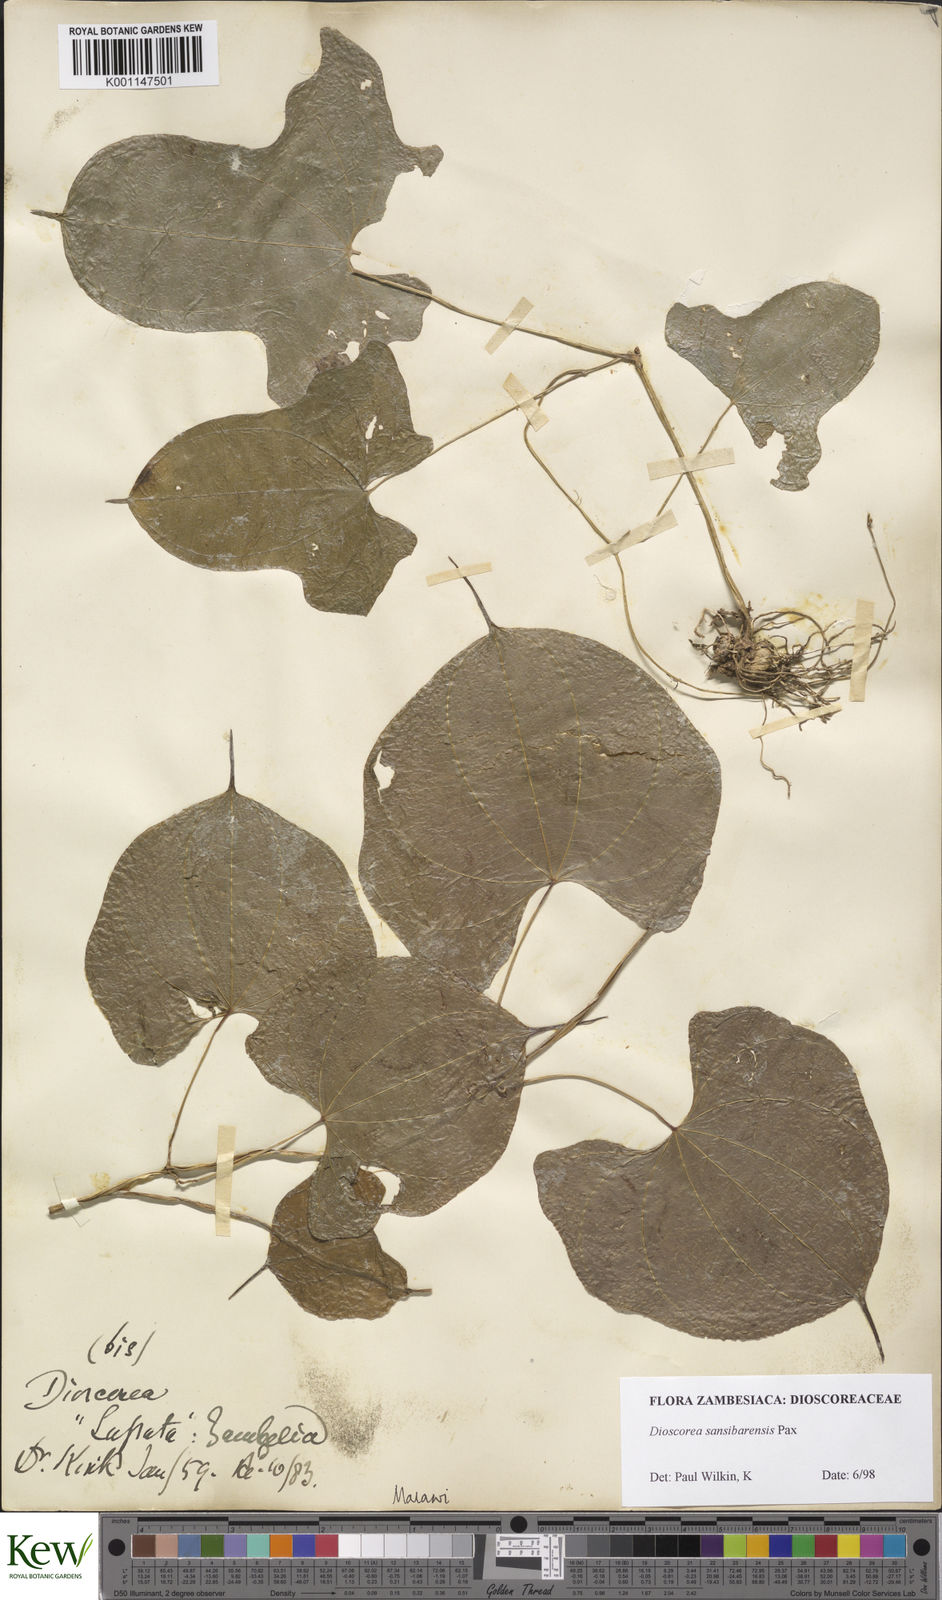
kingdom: Plantae
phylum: Tracheophyta
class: Liliopsida
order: Dioscoreales
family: Dioscoreaceae
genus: Dioscorea
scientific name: Dioscorea sansibarensis
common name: Zanzibar yam
